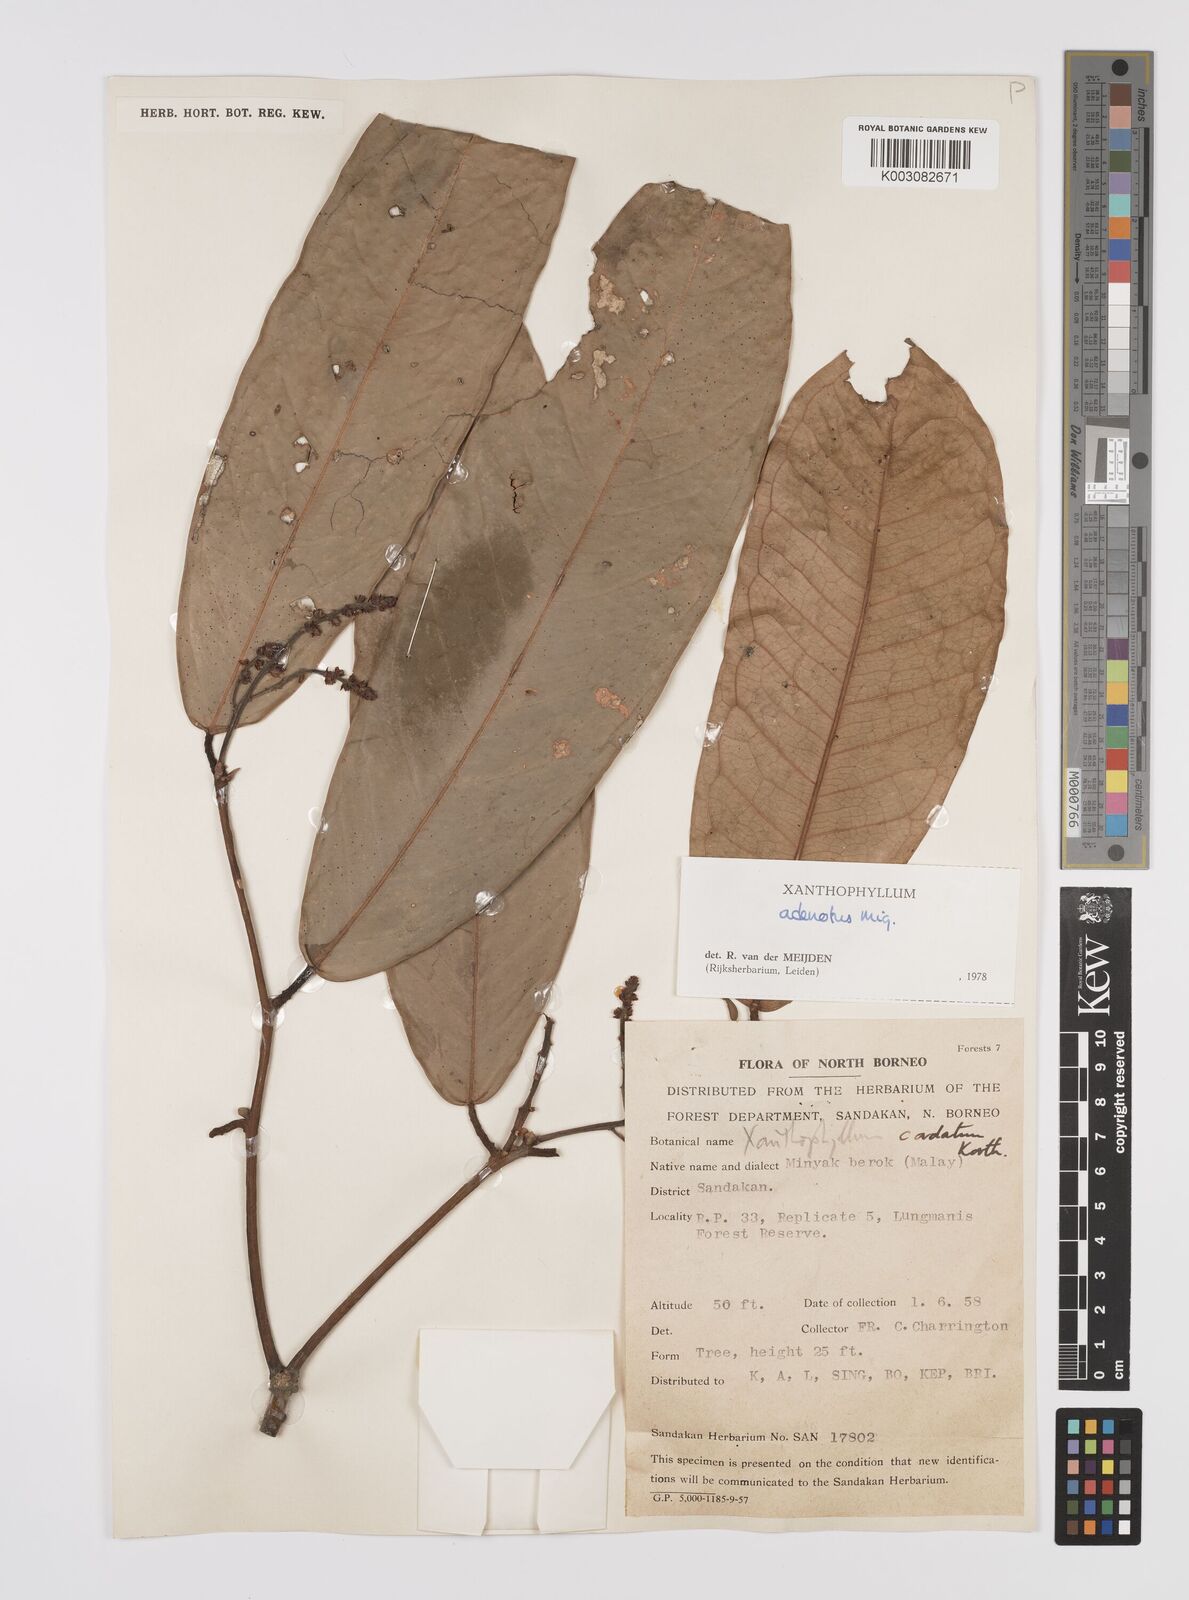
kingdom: Plantae
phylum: Tracheophyta
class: Magnoliopsida
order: Fabales
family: Polygalaceae
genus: Xanthophyllum
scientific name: Xanthophyllum adenotus
